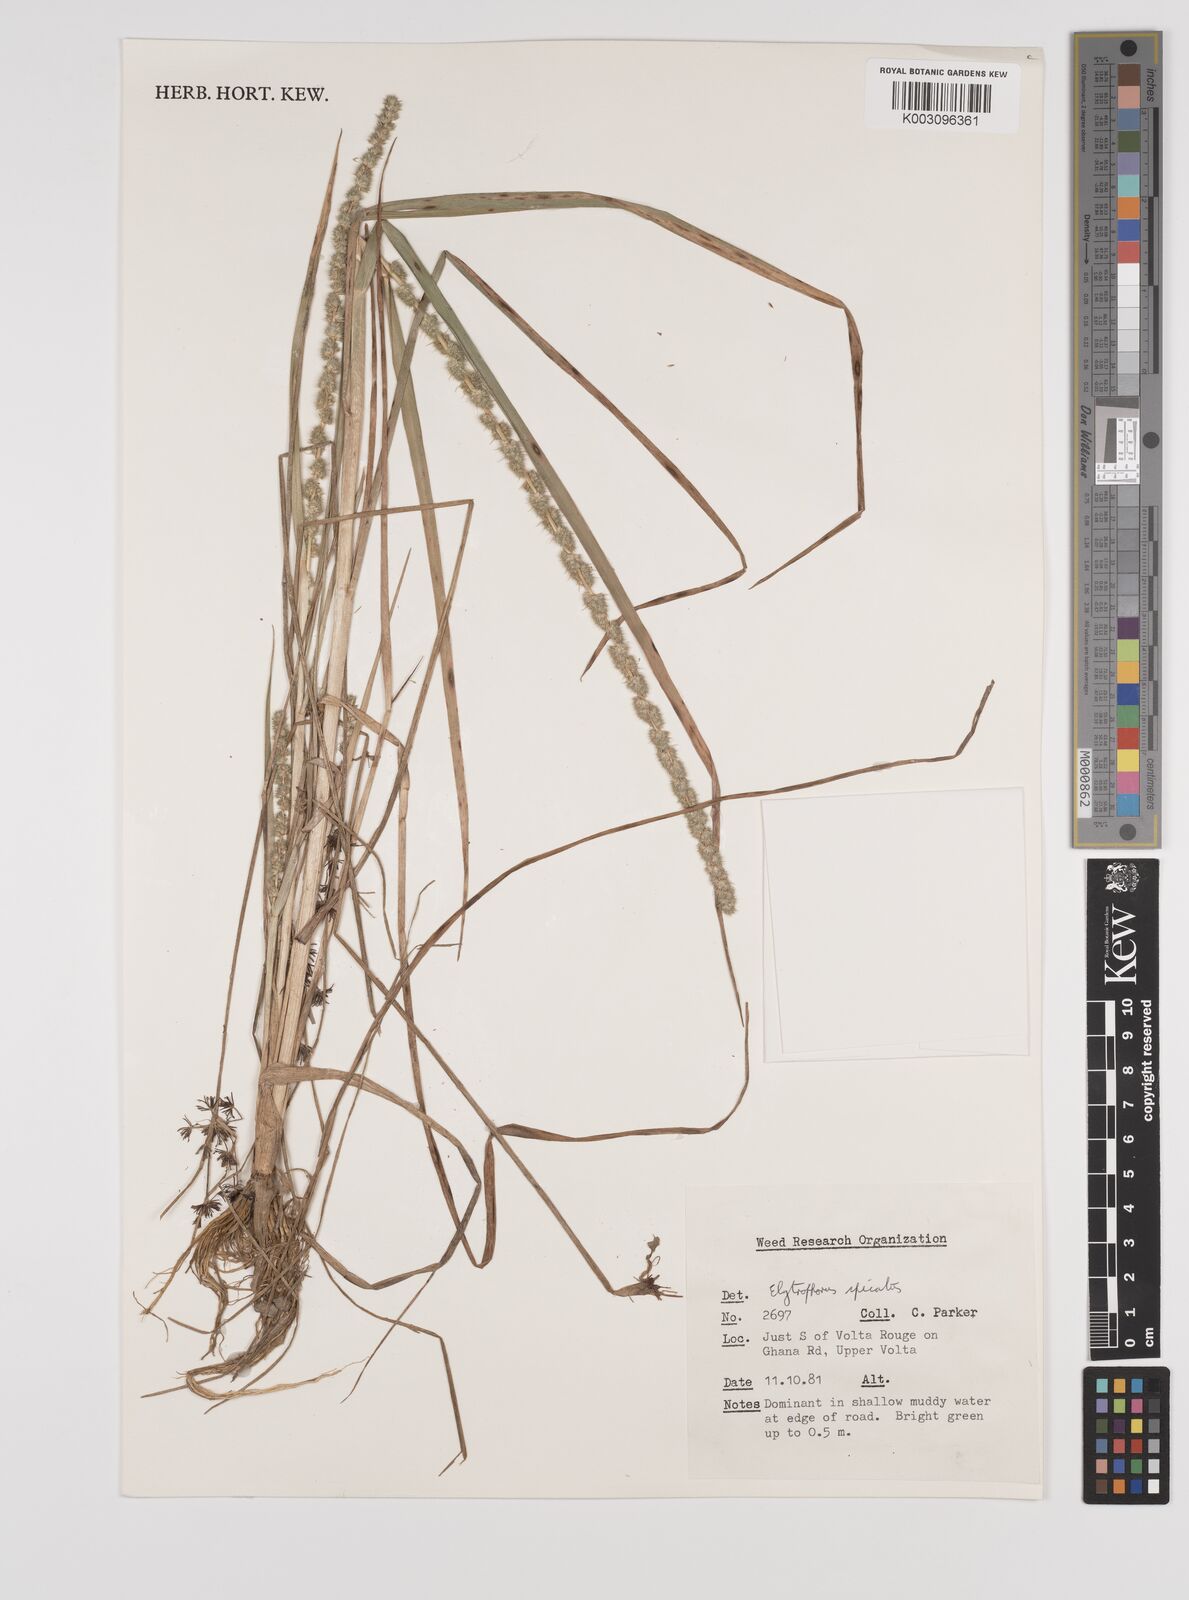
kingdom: Plantae
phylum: Tracheophyta
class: Liliopsida
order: Poales
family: Poaceae
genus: Elytrophorus
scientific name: Elytrophorus spicatus
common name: Spike grass
